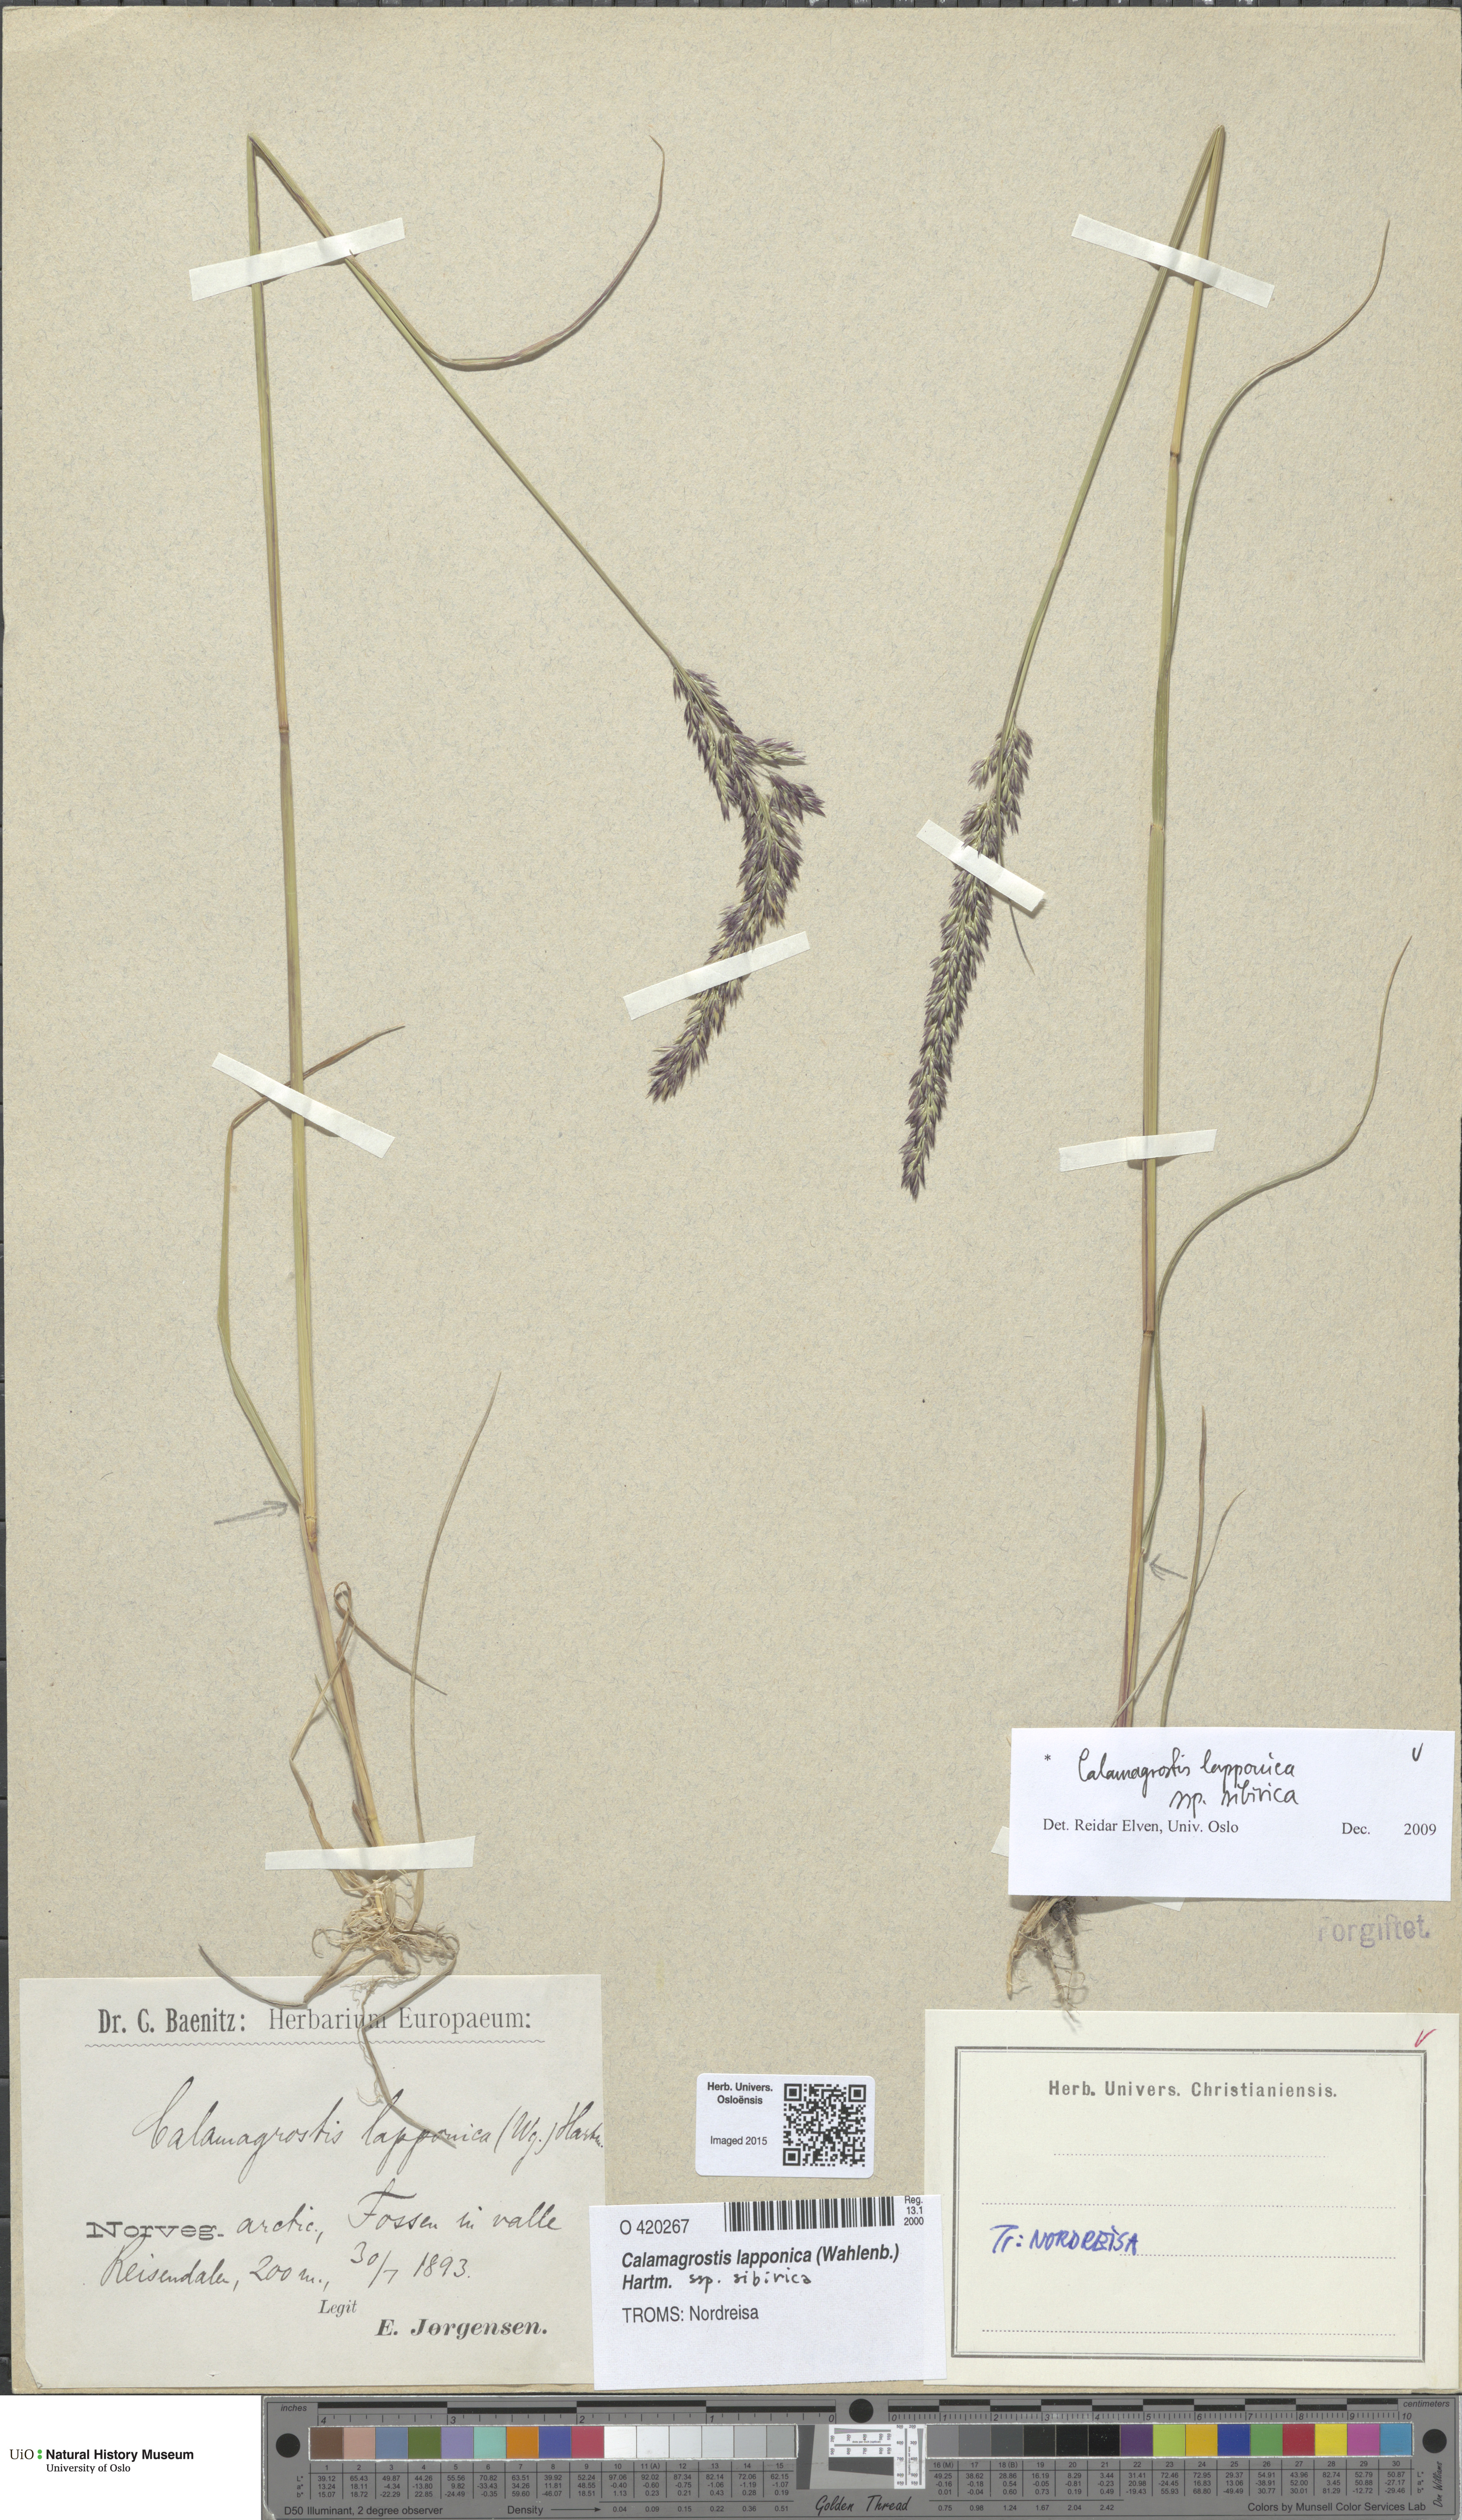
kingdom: Plantae
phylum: Tracheophyta
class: Liliopsida
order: Poales
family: Poaceae
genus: Calamagrostis
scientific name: Calamagrostis lapponica
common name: Lapland reedgrass
